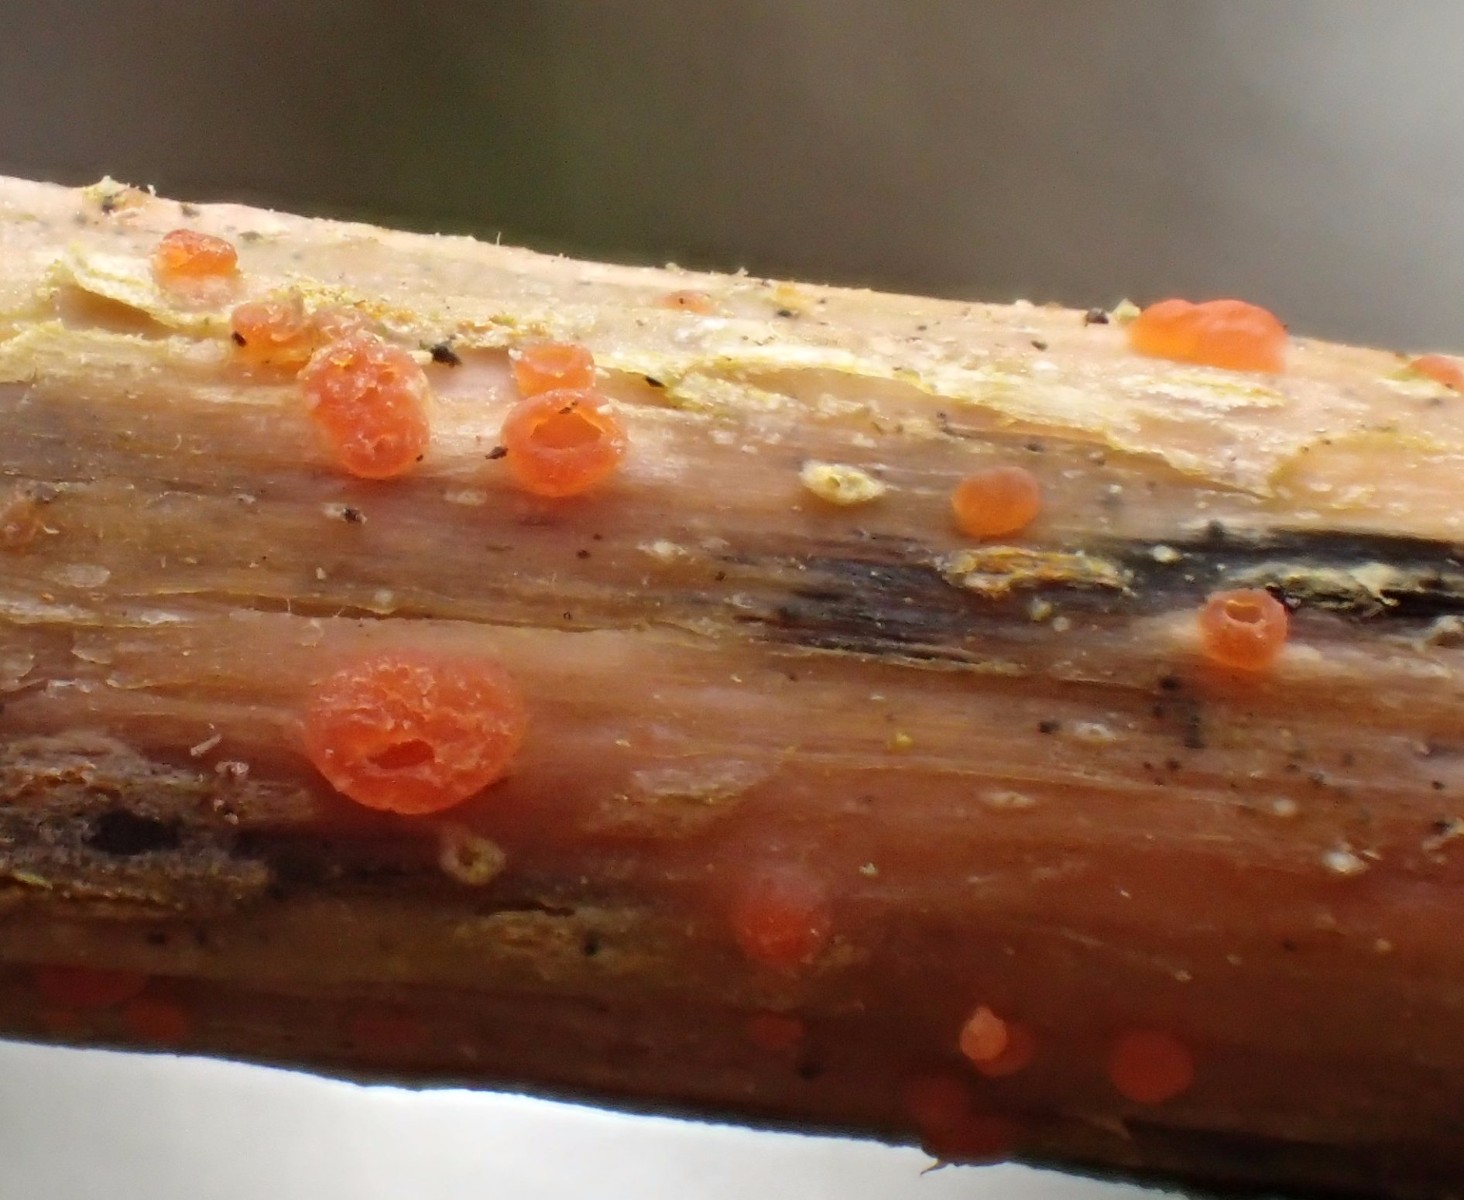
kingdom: Fungi
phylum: Ascomycota
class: Leotiomycetes
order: Helotiales
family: Calloriaceae
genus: Calloria
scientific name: Calloria urticae
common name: nælde-orangeskive
